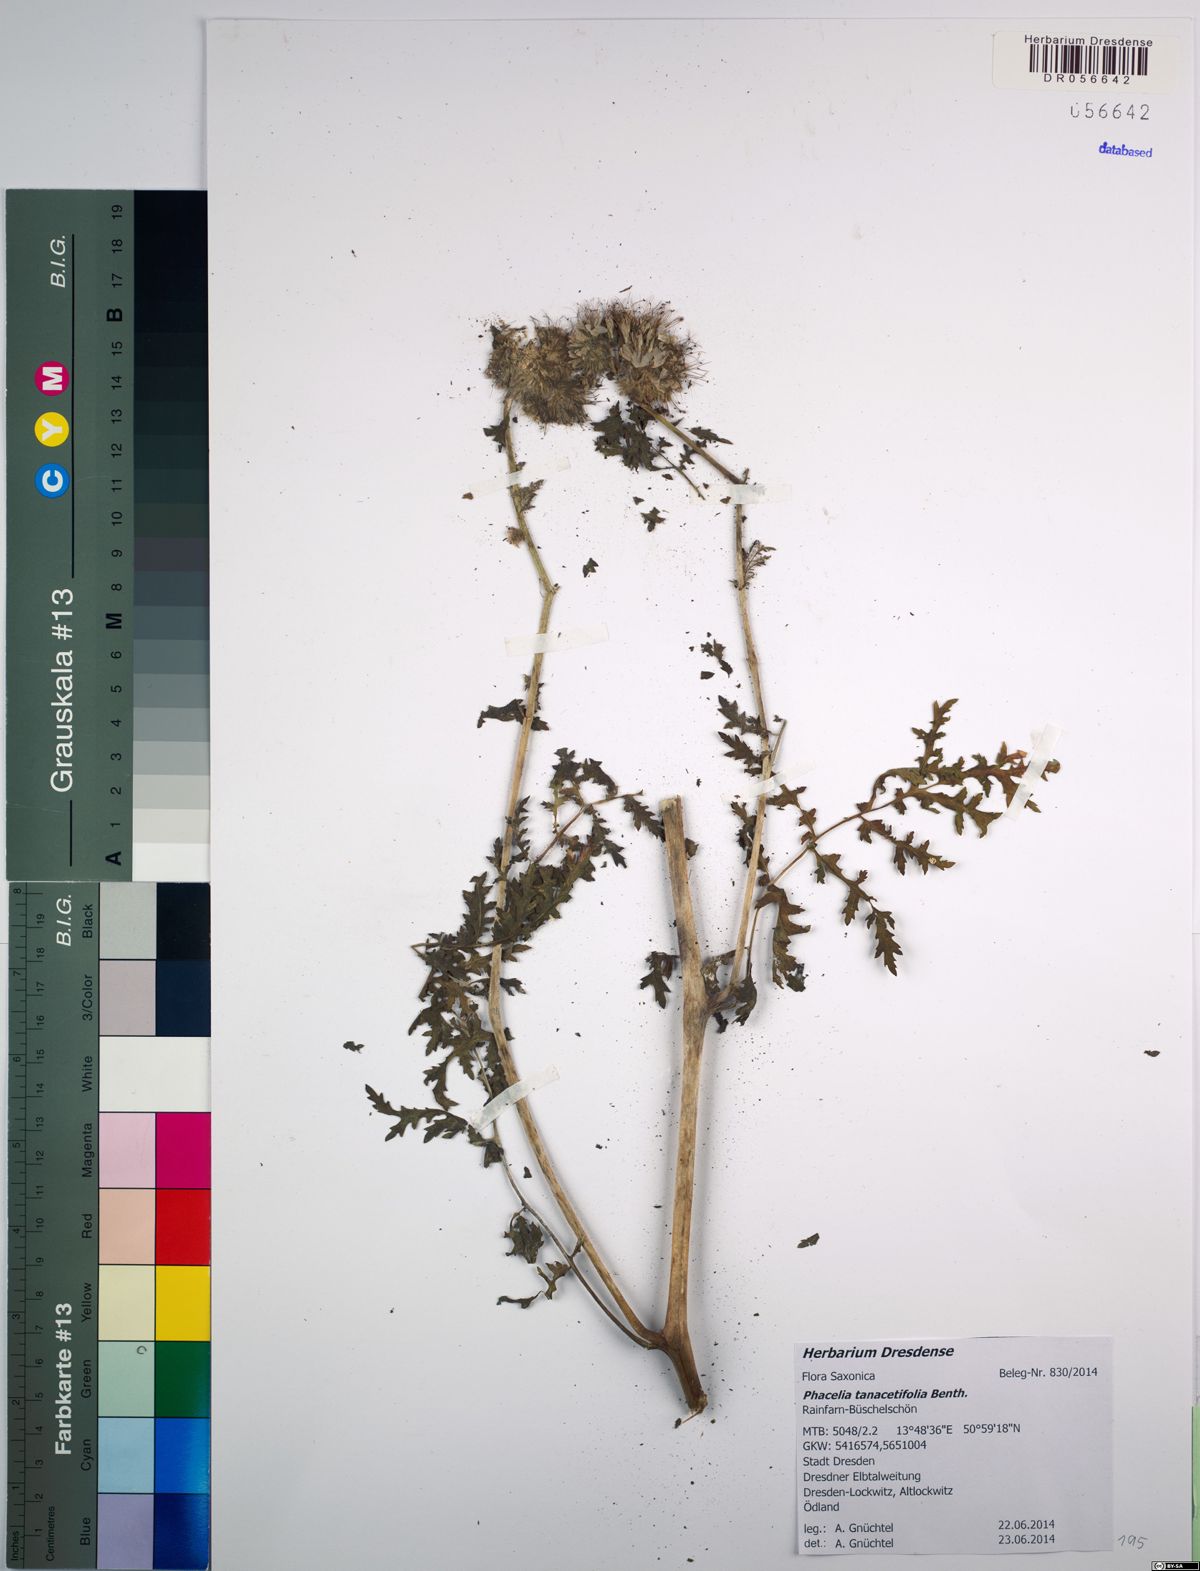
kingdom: Plantae
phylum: Tracheophyta
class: Magnoliopsida
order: Boraginales
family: Hydrophyllaceae
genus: Phacelia
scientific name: Phacelia tanacetifolia
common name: Phacelia
